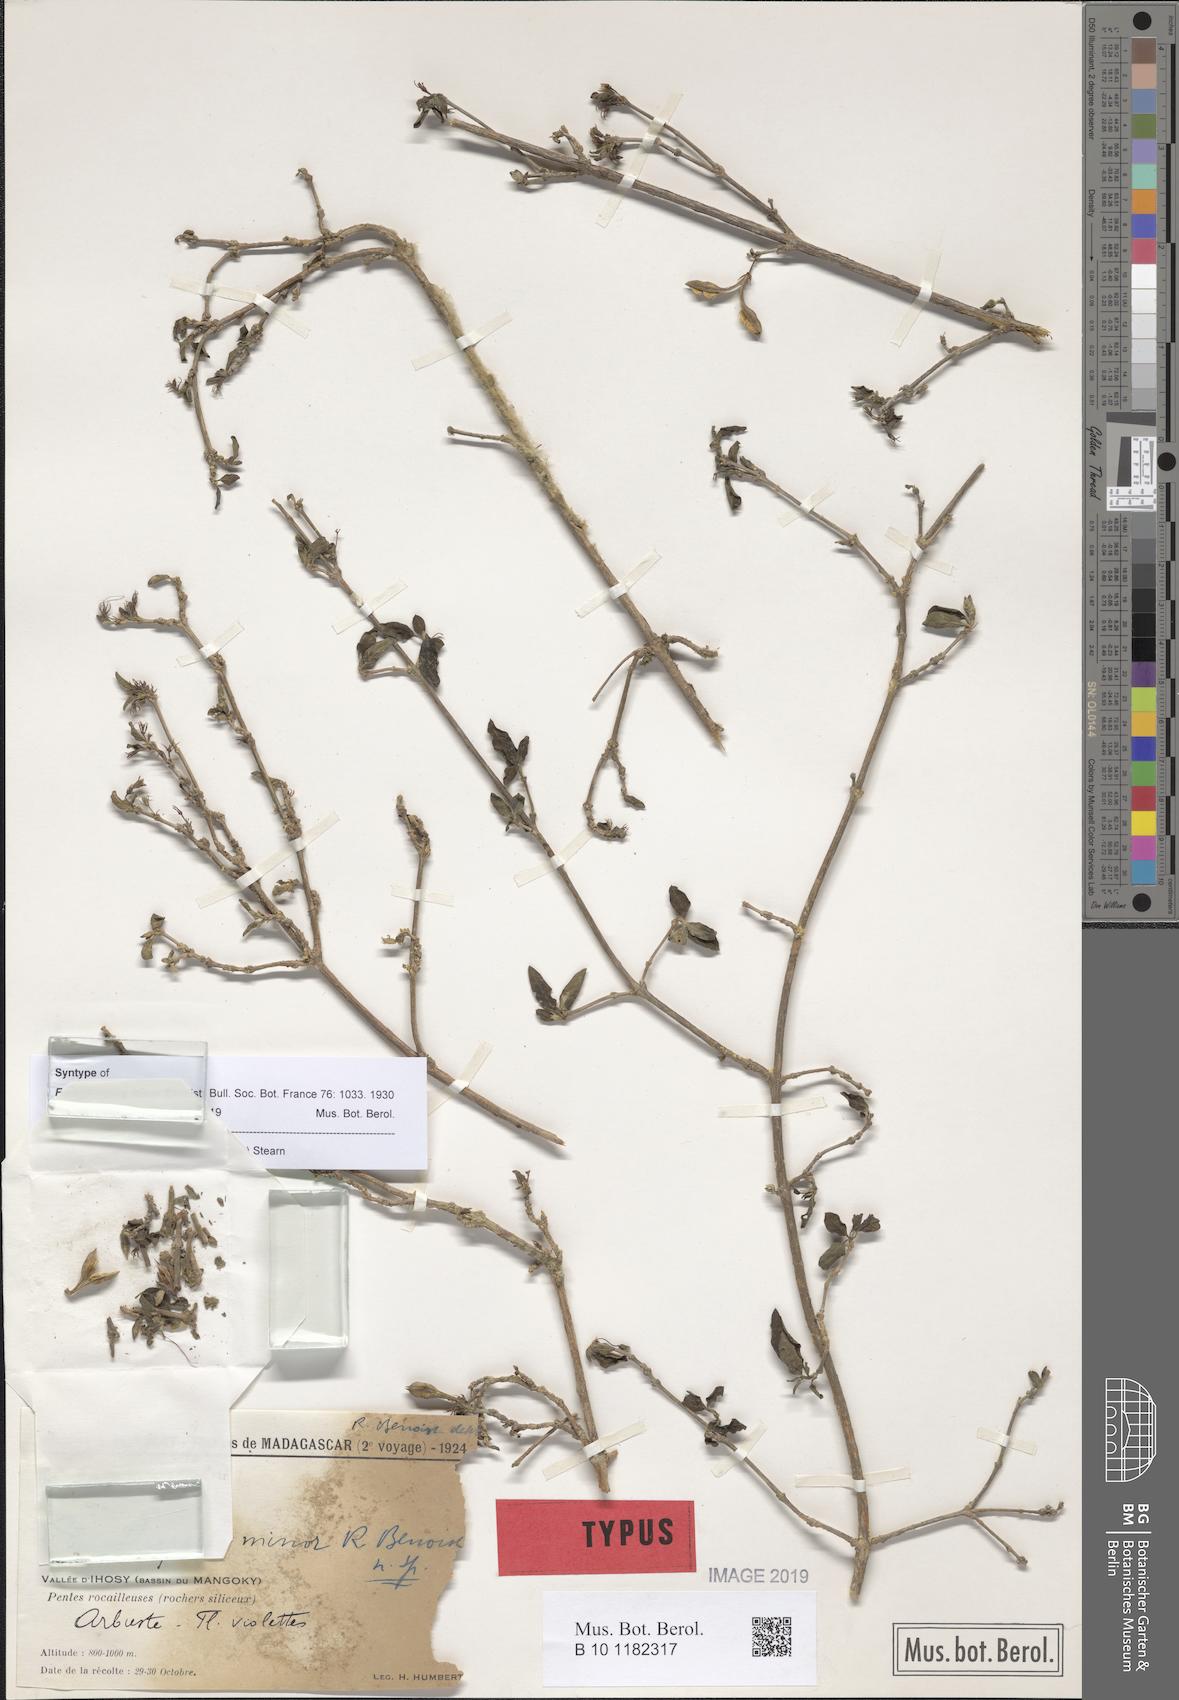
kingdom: Plantae
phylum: Tracheophyta
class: Magnoliopsida
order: Lamiales
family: Acanthaceae
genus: Oplonia
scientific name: Oplonia minor
